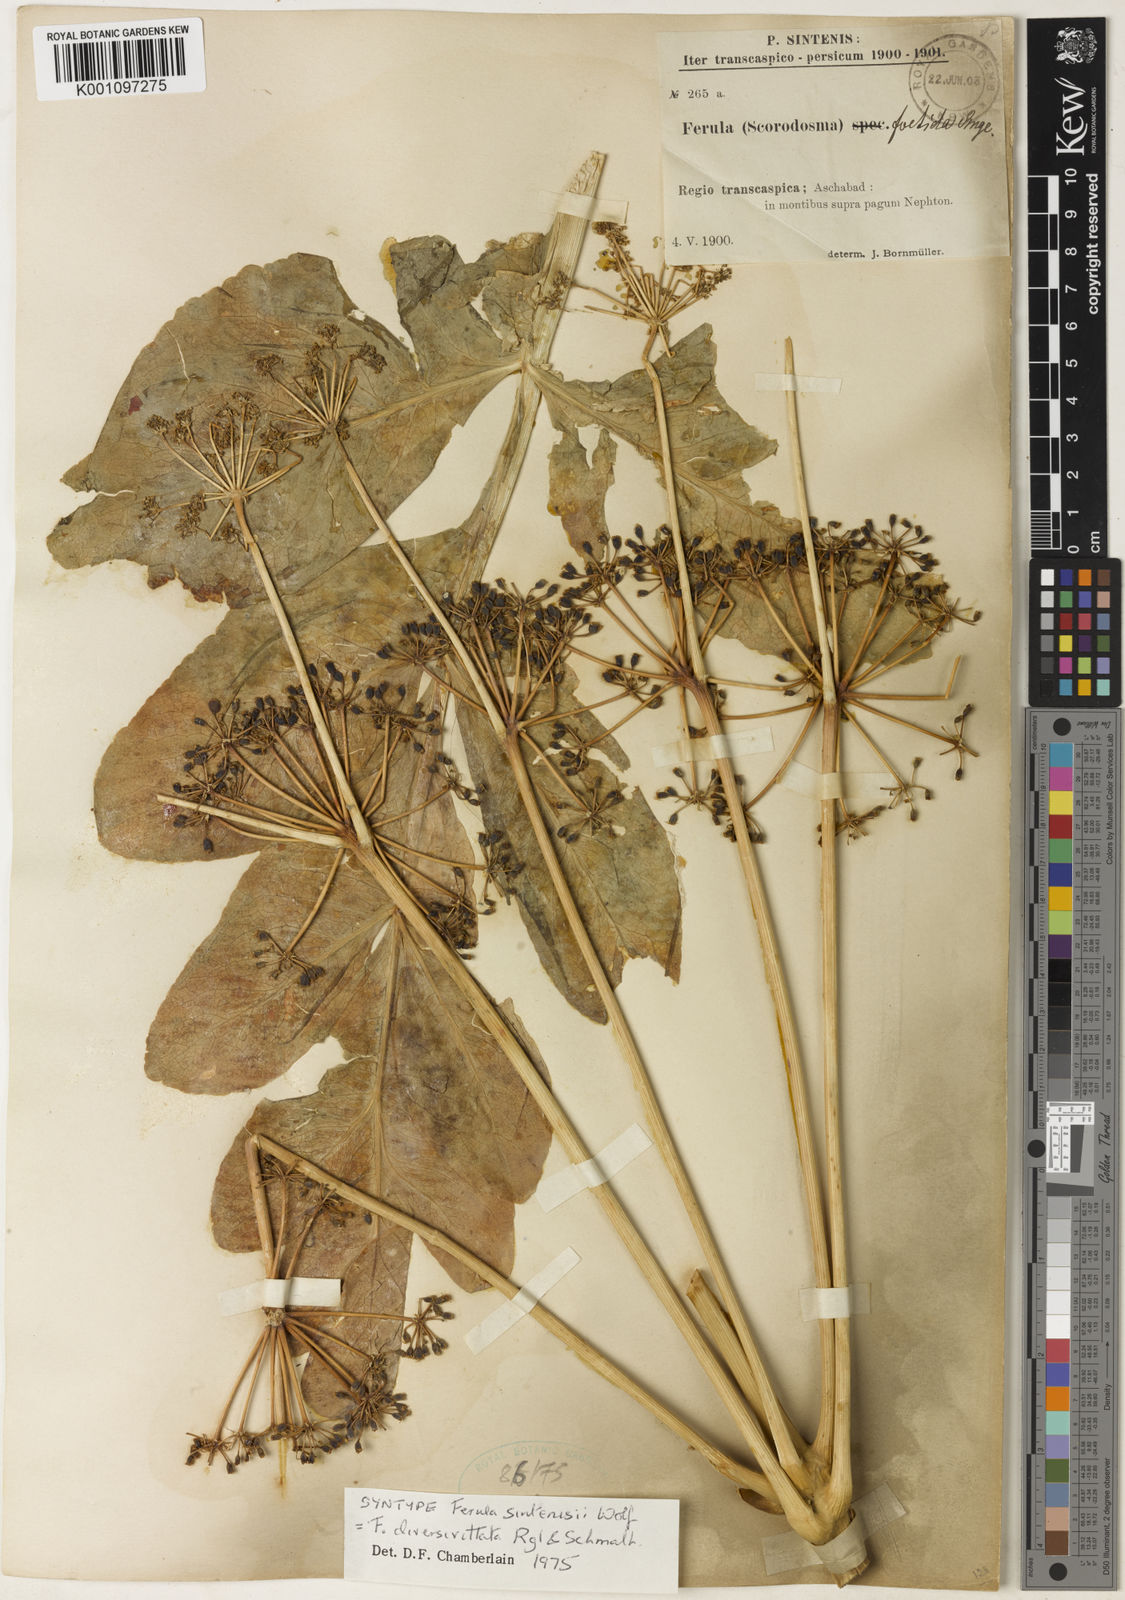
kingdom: Plantae
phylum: Tracheophyta
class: Magnoliopsida
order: Apiales
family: Apiaceae
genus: Ferula
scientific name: Ferula diversivittata
